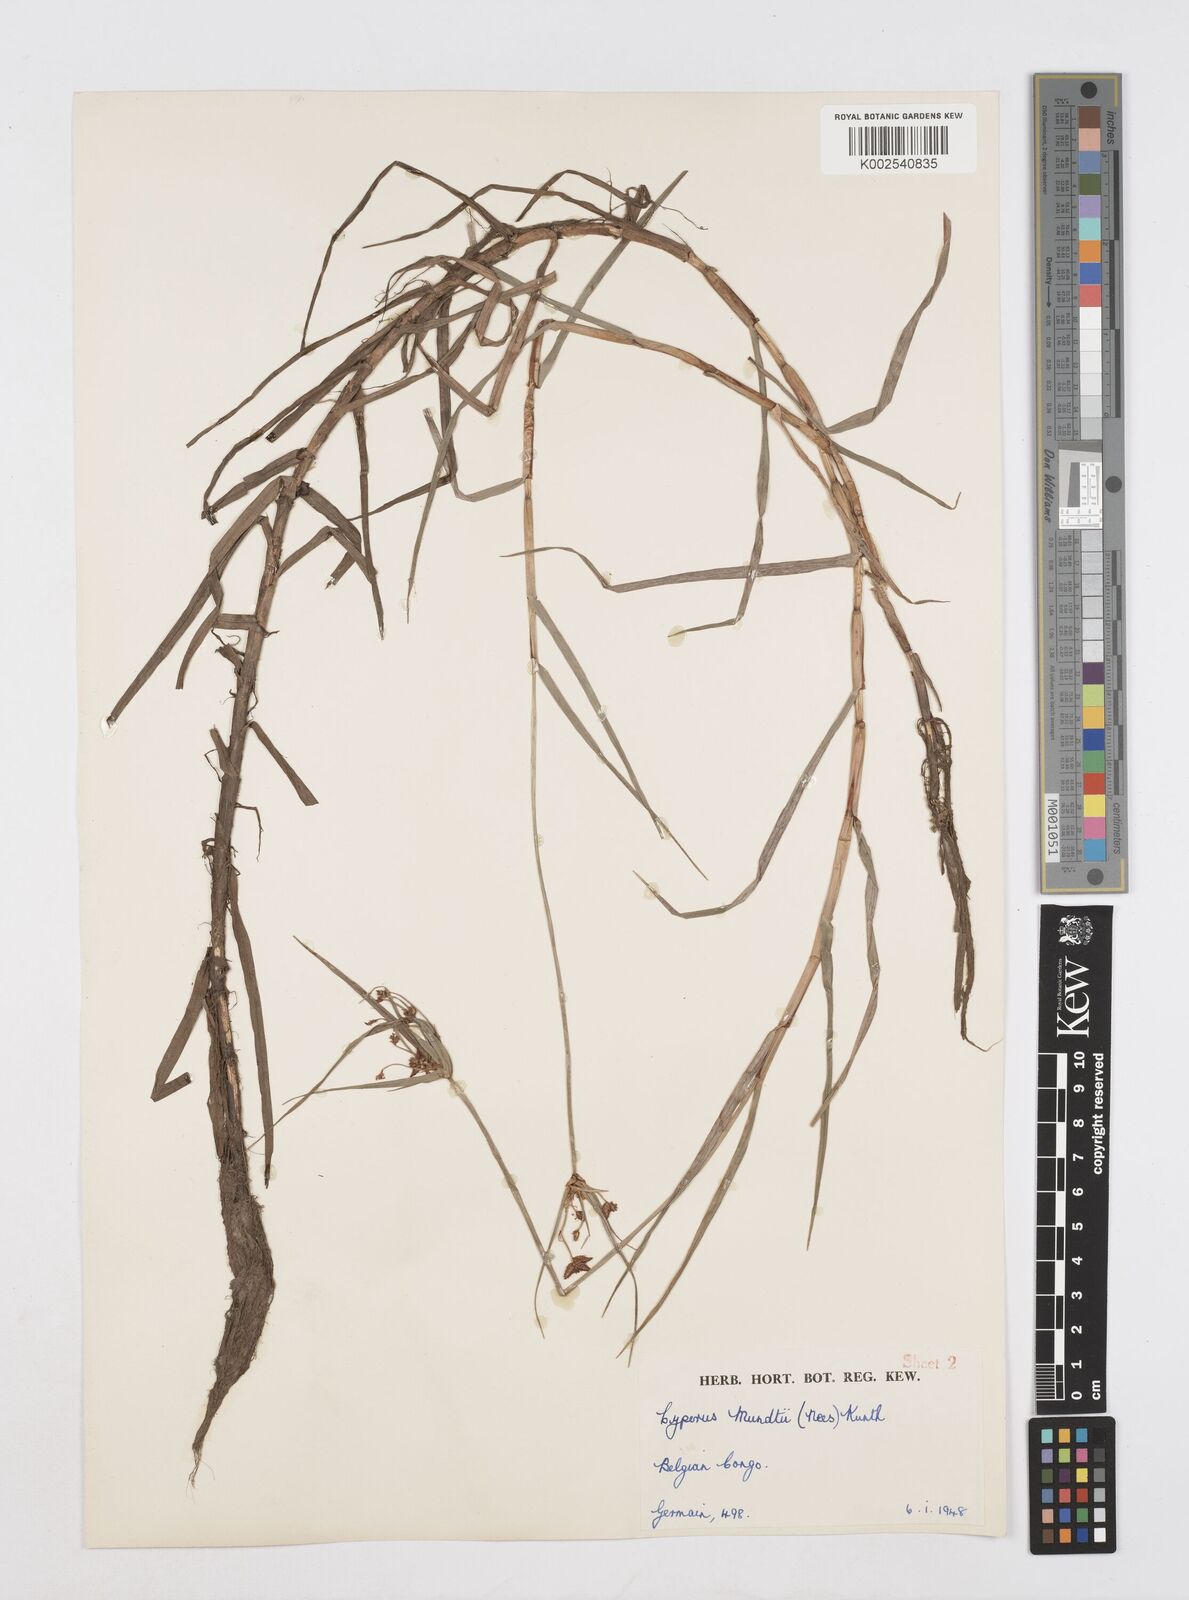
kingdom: Plantae
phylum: Tracheophyta
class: Liliopsida
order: Poales
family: Cyperaceae
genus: Cyperus
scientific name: Cyperus mundii
